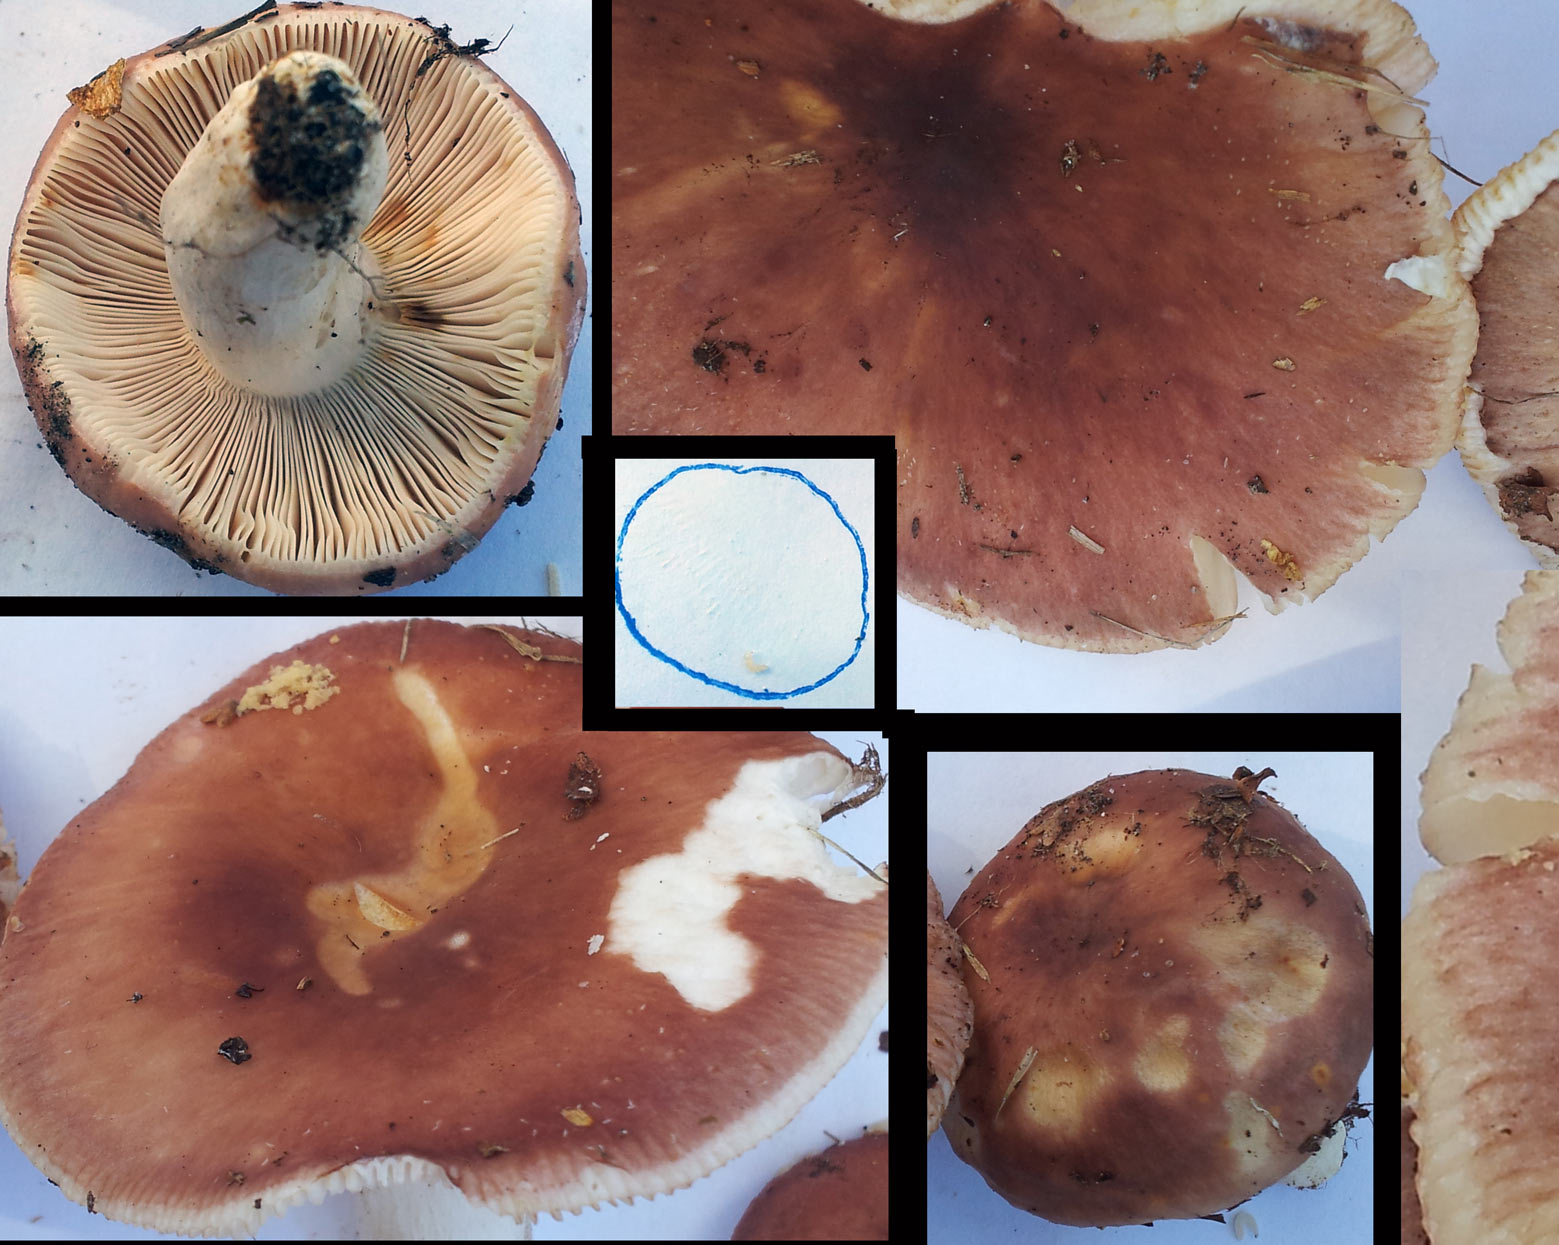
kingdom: Fungi
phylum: Basidiomycota
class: Agaricomycetes
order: Russulales
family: Russulaceae
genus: Russula
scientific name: Russula vesca
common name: spiselig skørhat
